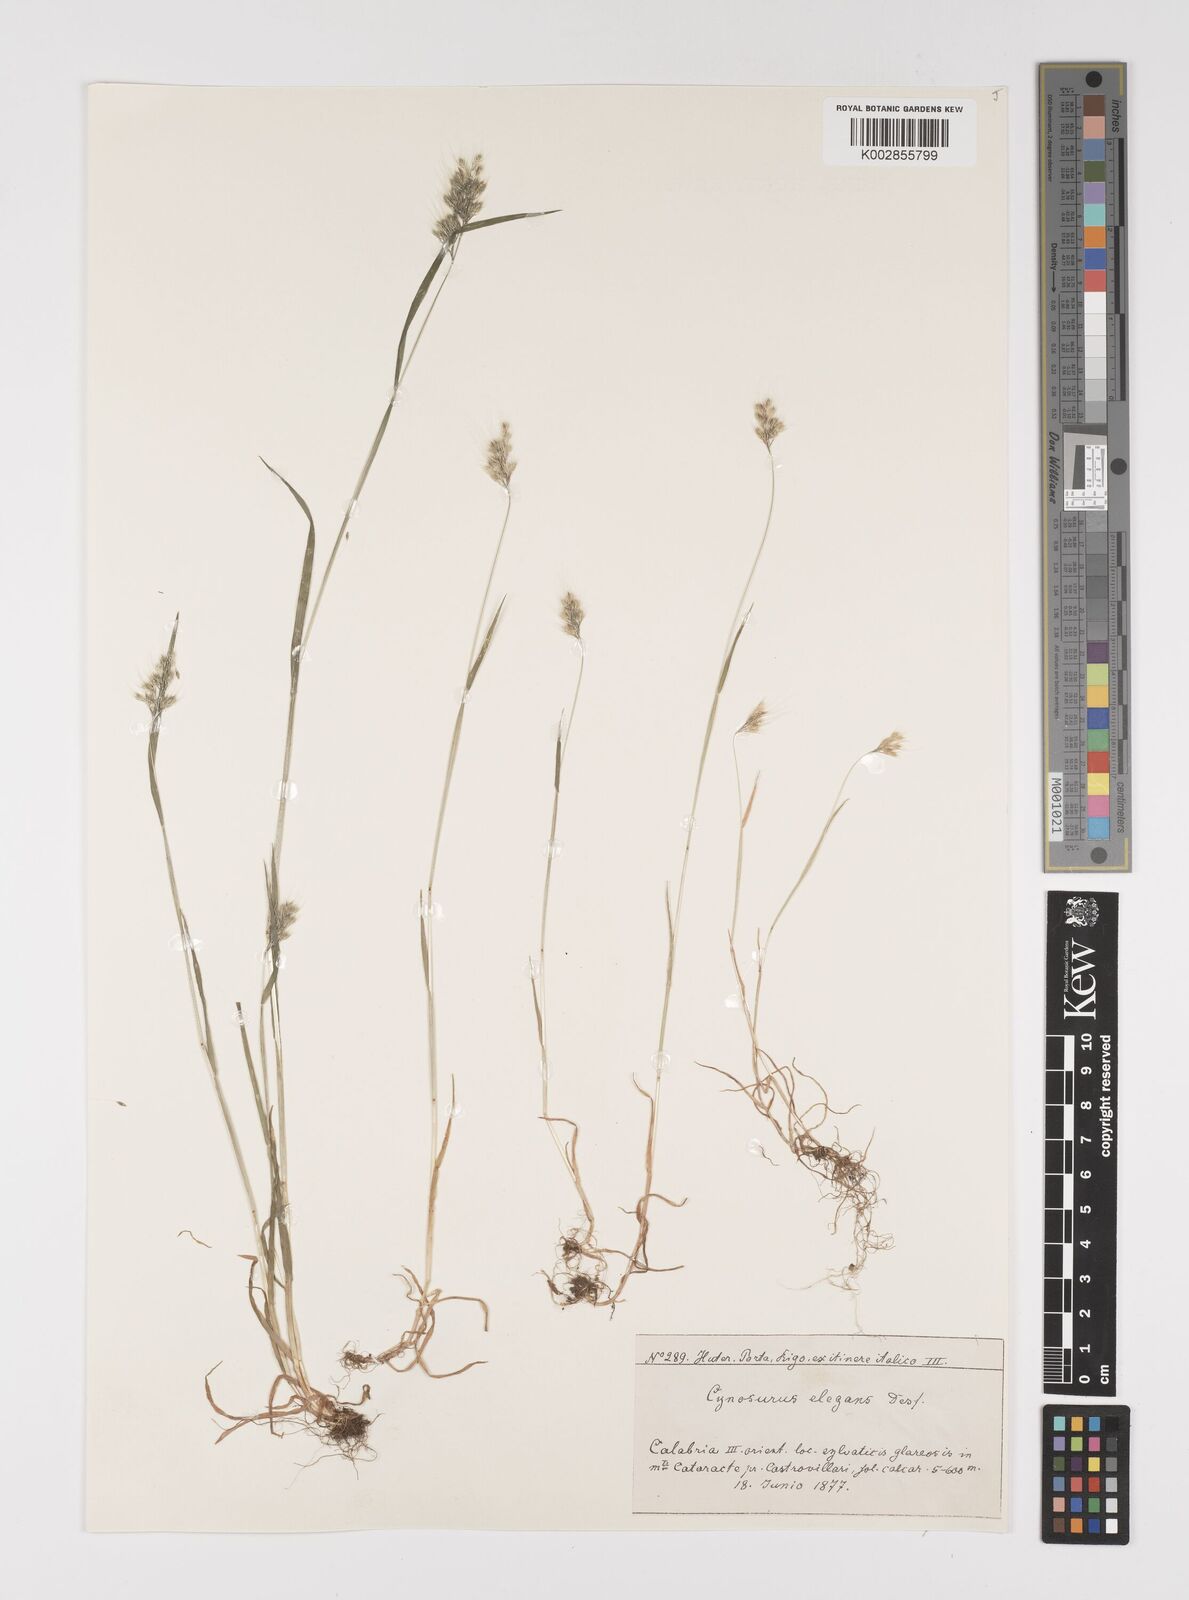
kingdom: Plantae
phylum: Tracheophyta
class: Liliopsida
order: Poales
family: Poaceae
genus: Cynosurus
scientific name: Cynosurus elegans
